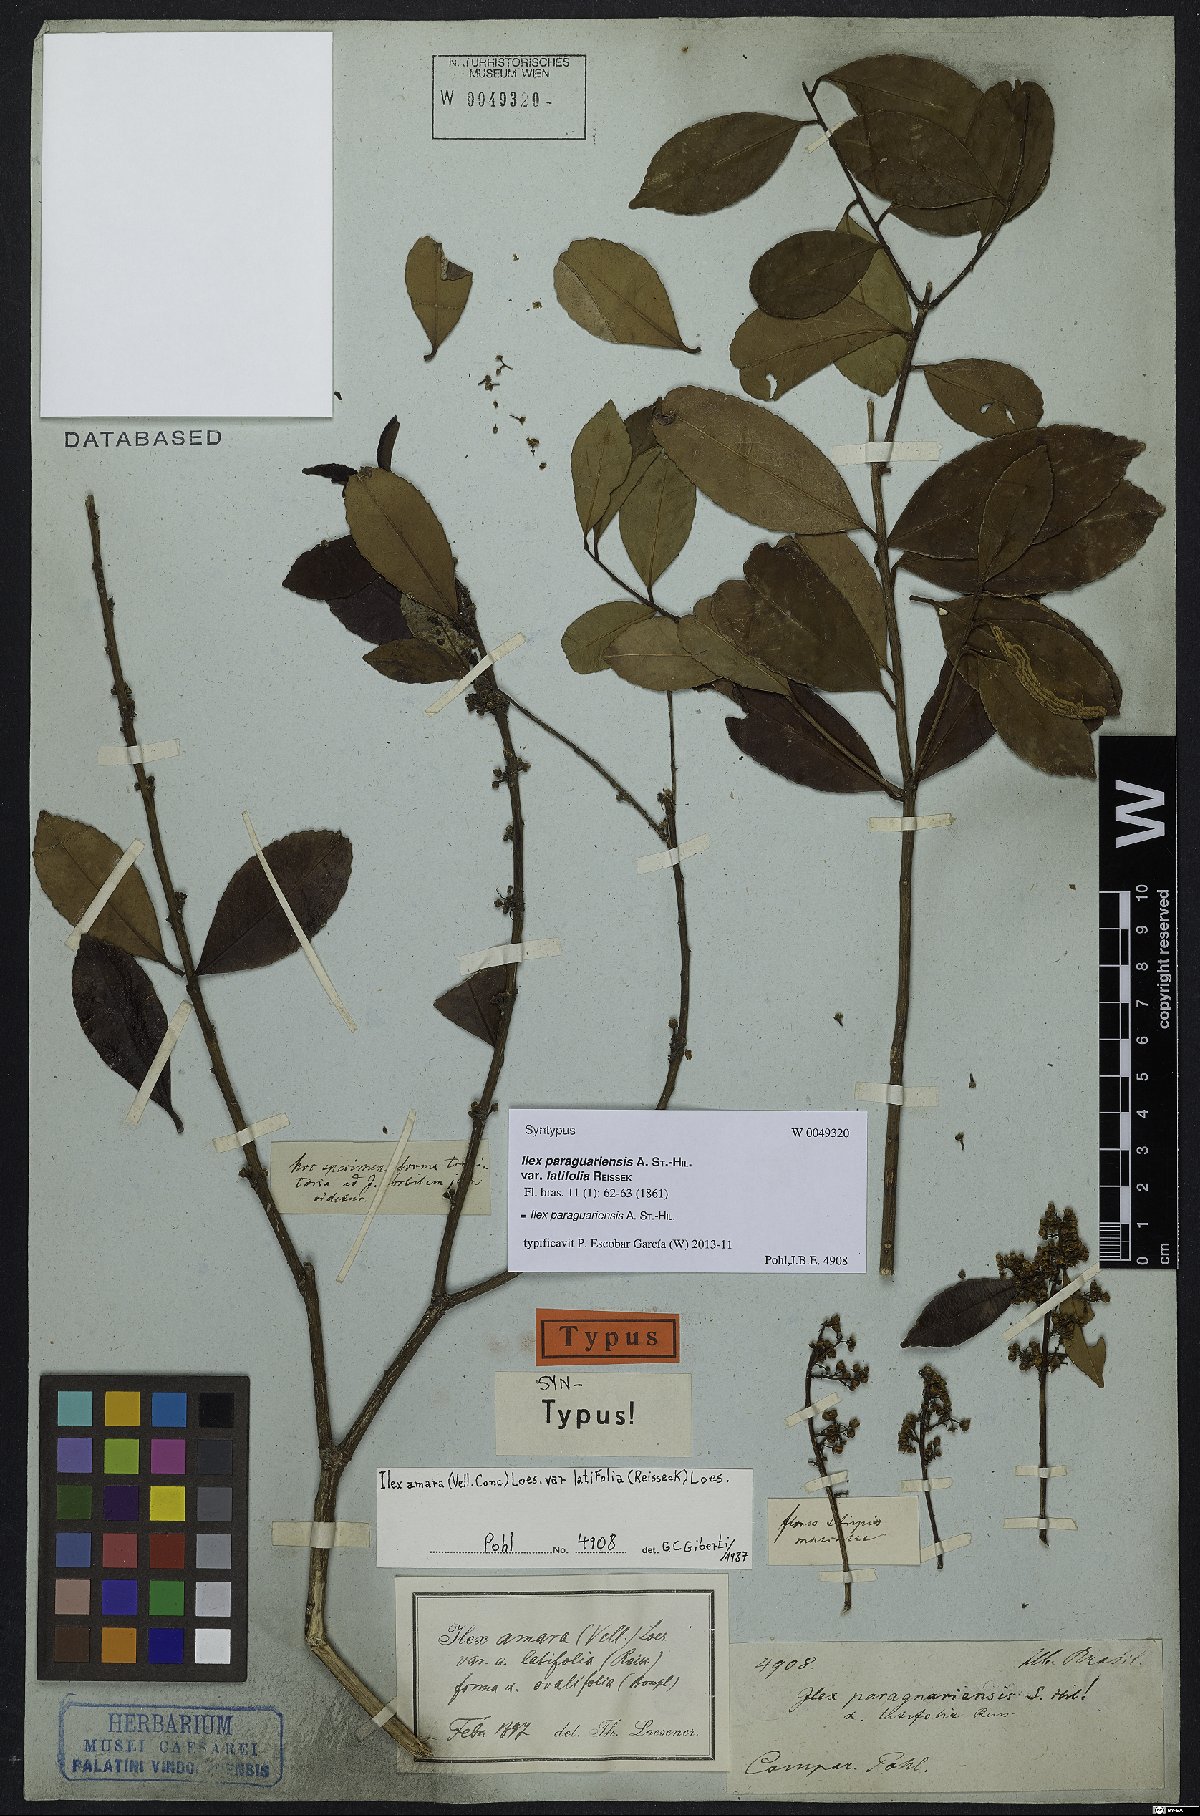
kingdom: Plantae
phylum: Tracheophyta
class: Magnoliopsida
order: Aquifoliales
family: Aquifoliaceae
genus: Ilex
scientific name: Ilex paraguariensis
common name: Paraguay tea
